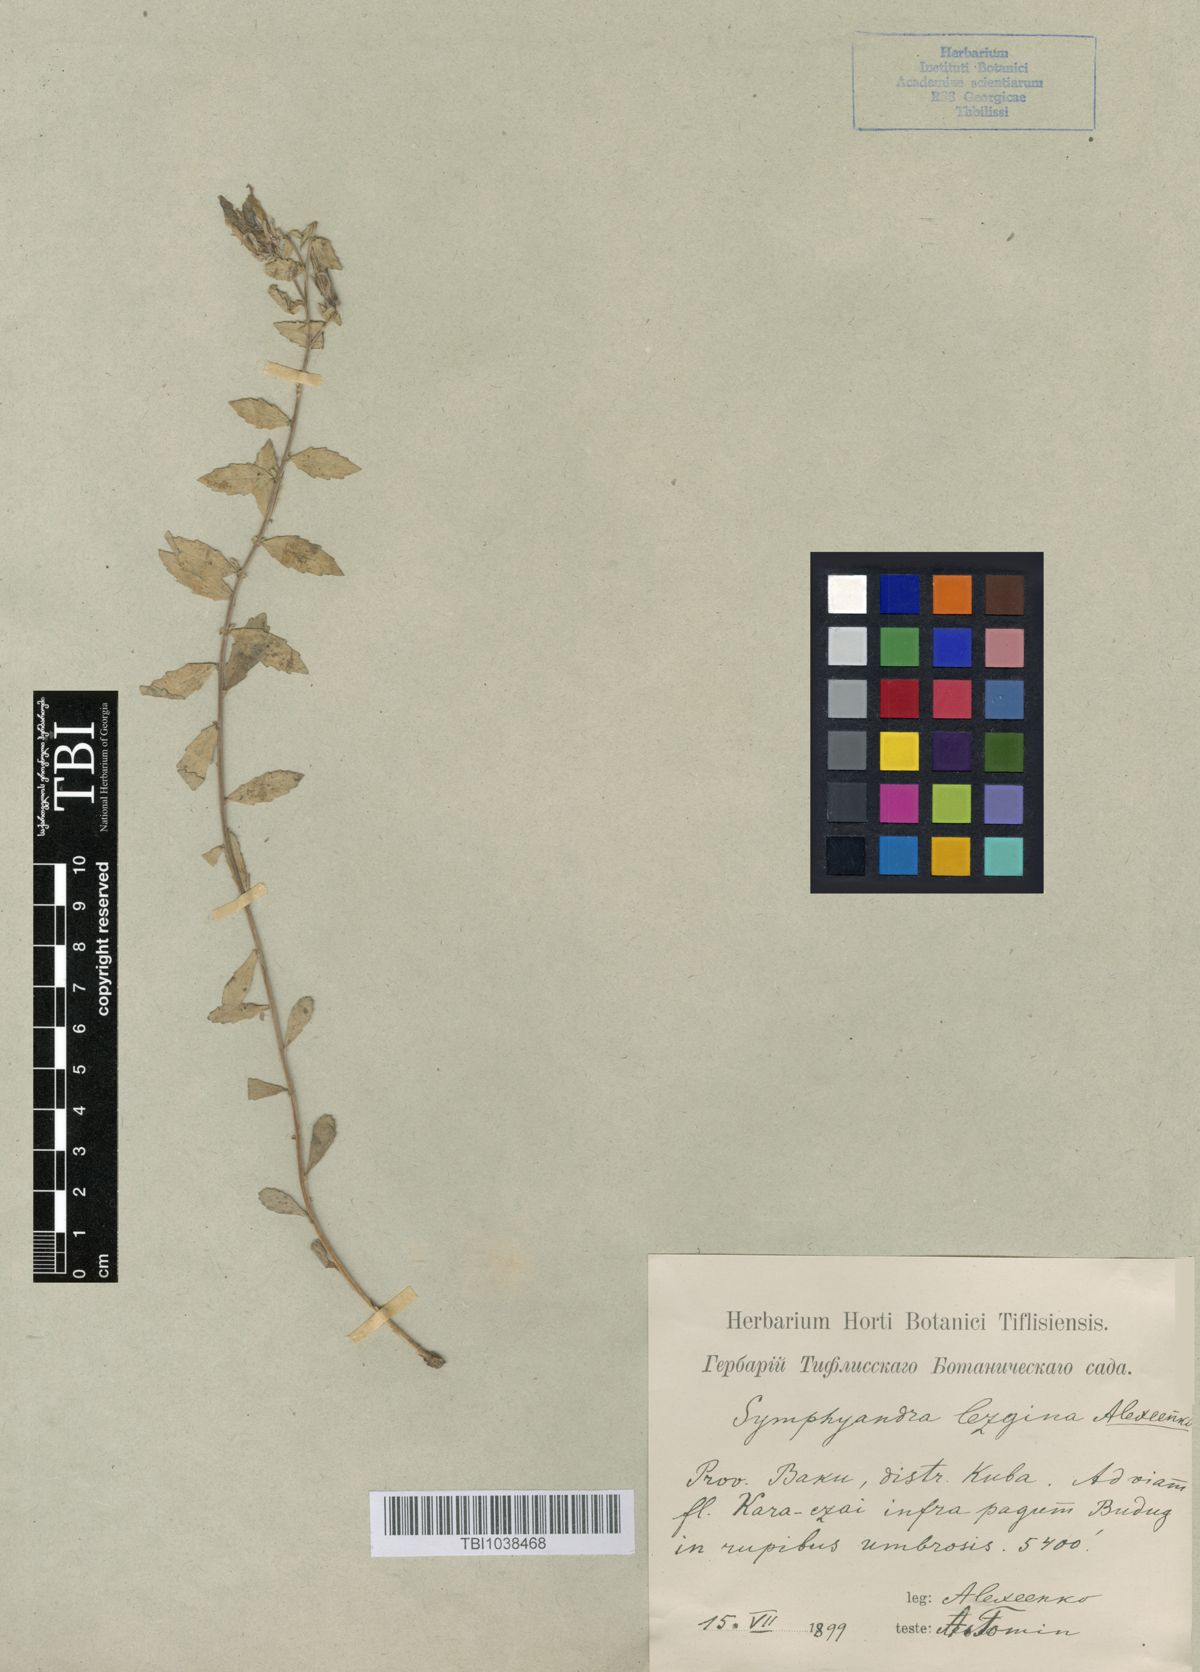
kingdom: Plantae
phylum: Tracheophyta
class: Magnoliopsida
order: Asterales
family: Campanulaceae
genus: Campanula
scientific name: Campanula lezgina
